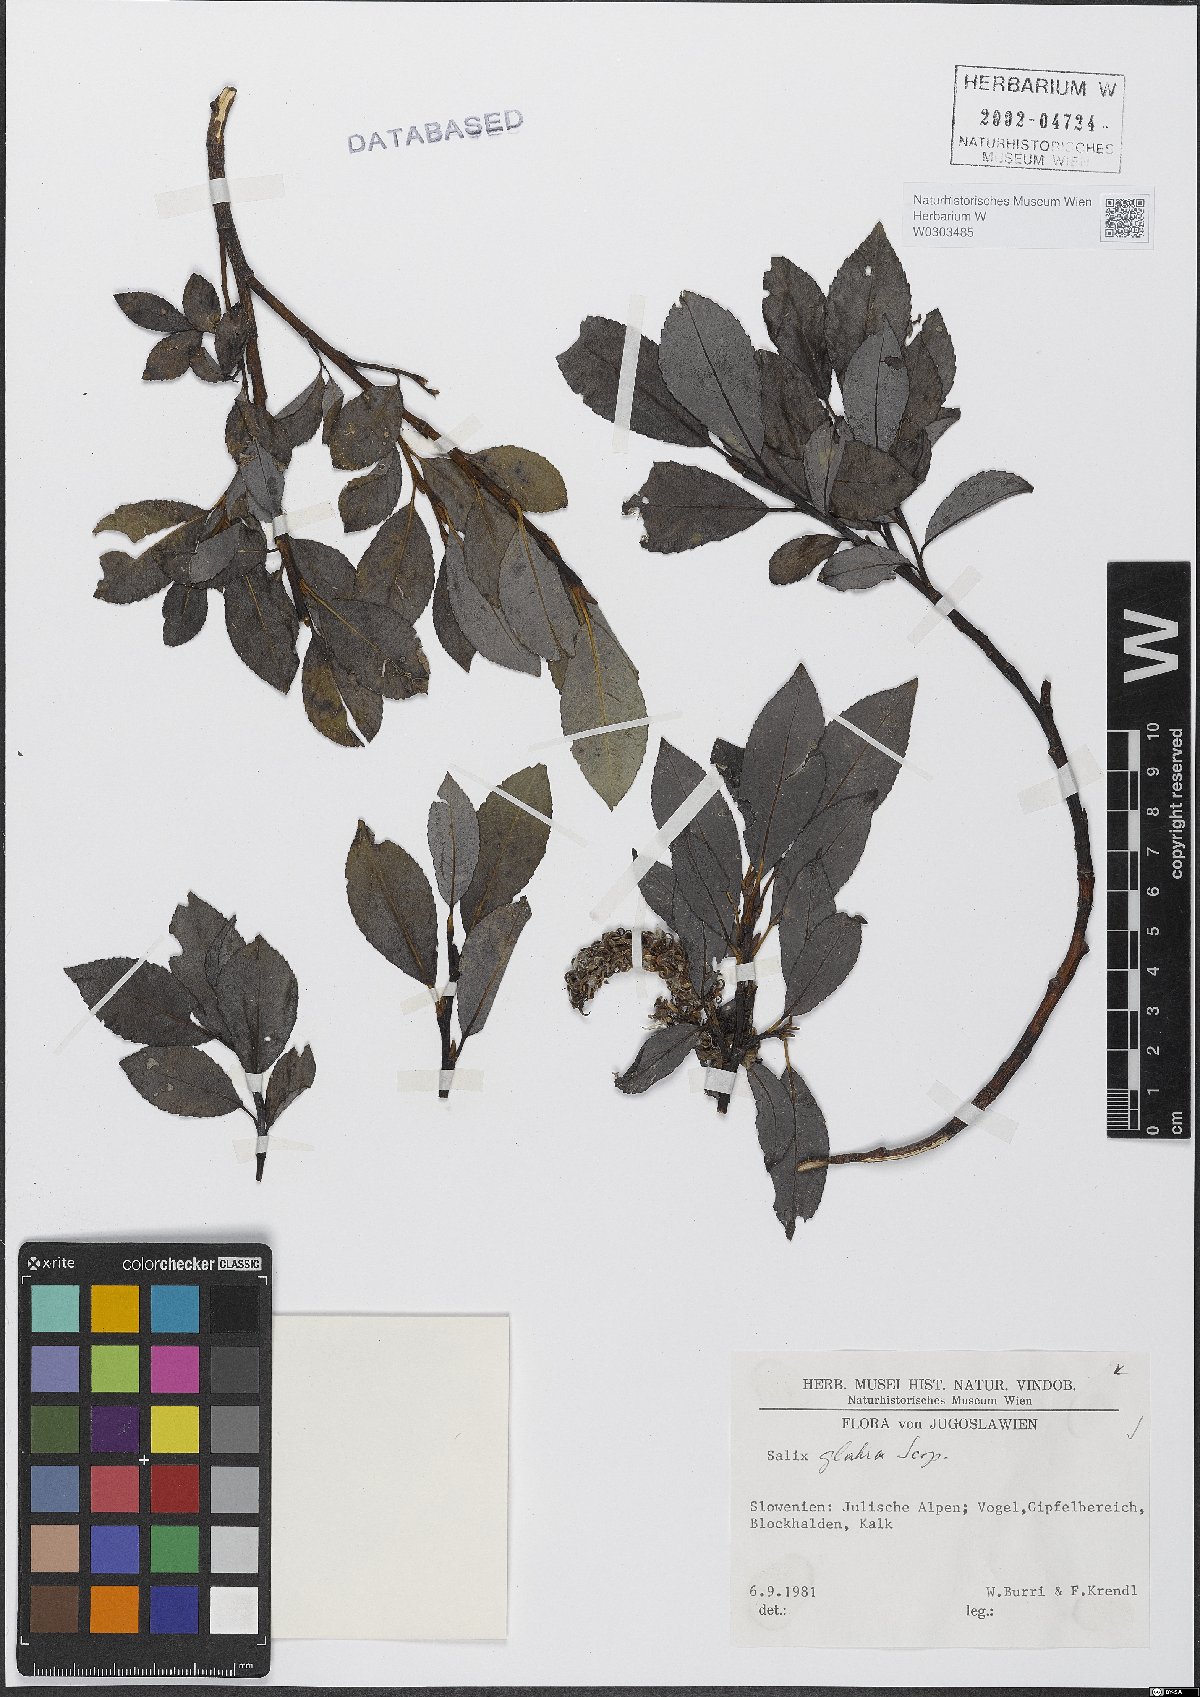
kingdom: Plantae
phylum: Tracheophyta
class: Magnoliopsida
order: Malpighiales
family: Salicaceae
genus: Salix
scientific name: Salix glabra
